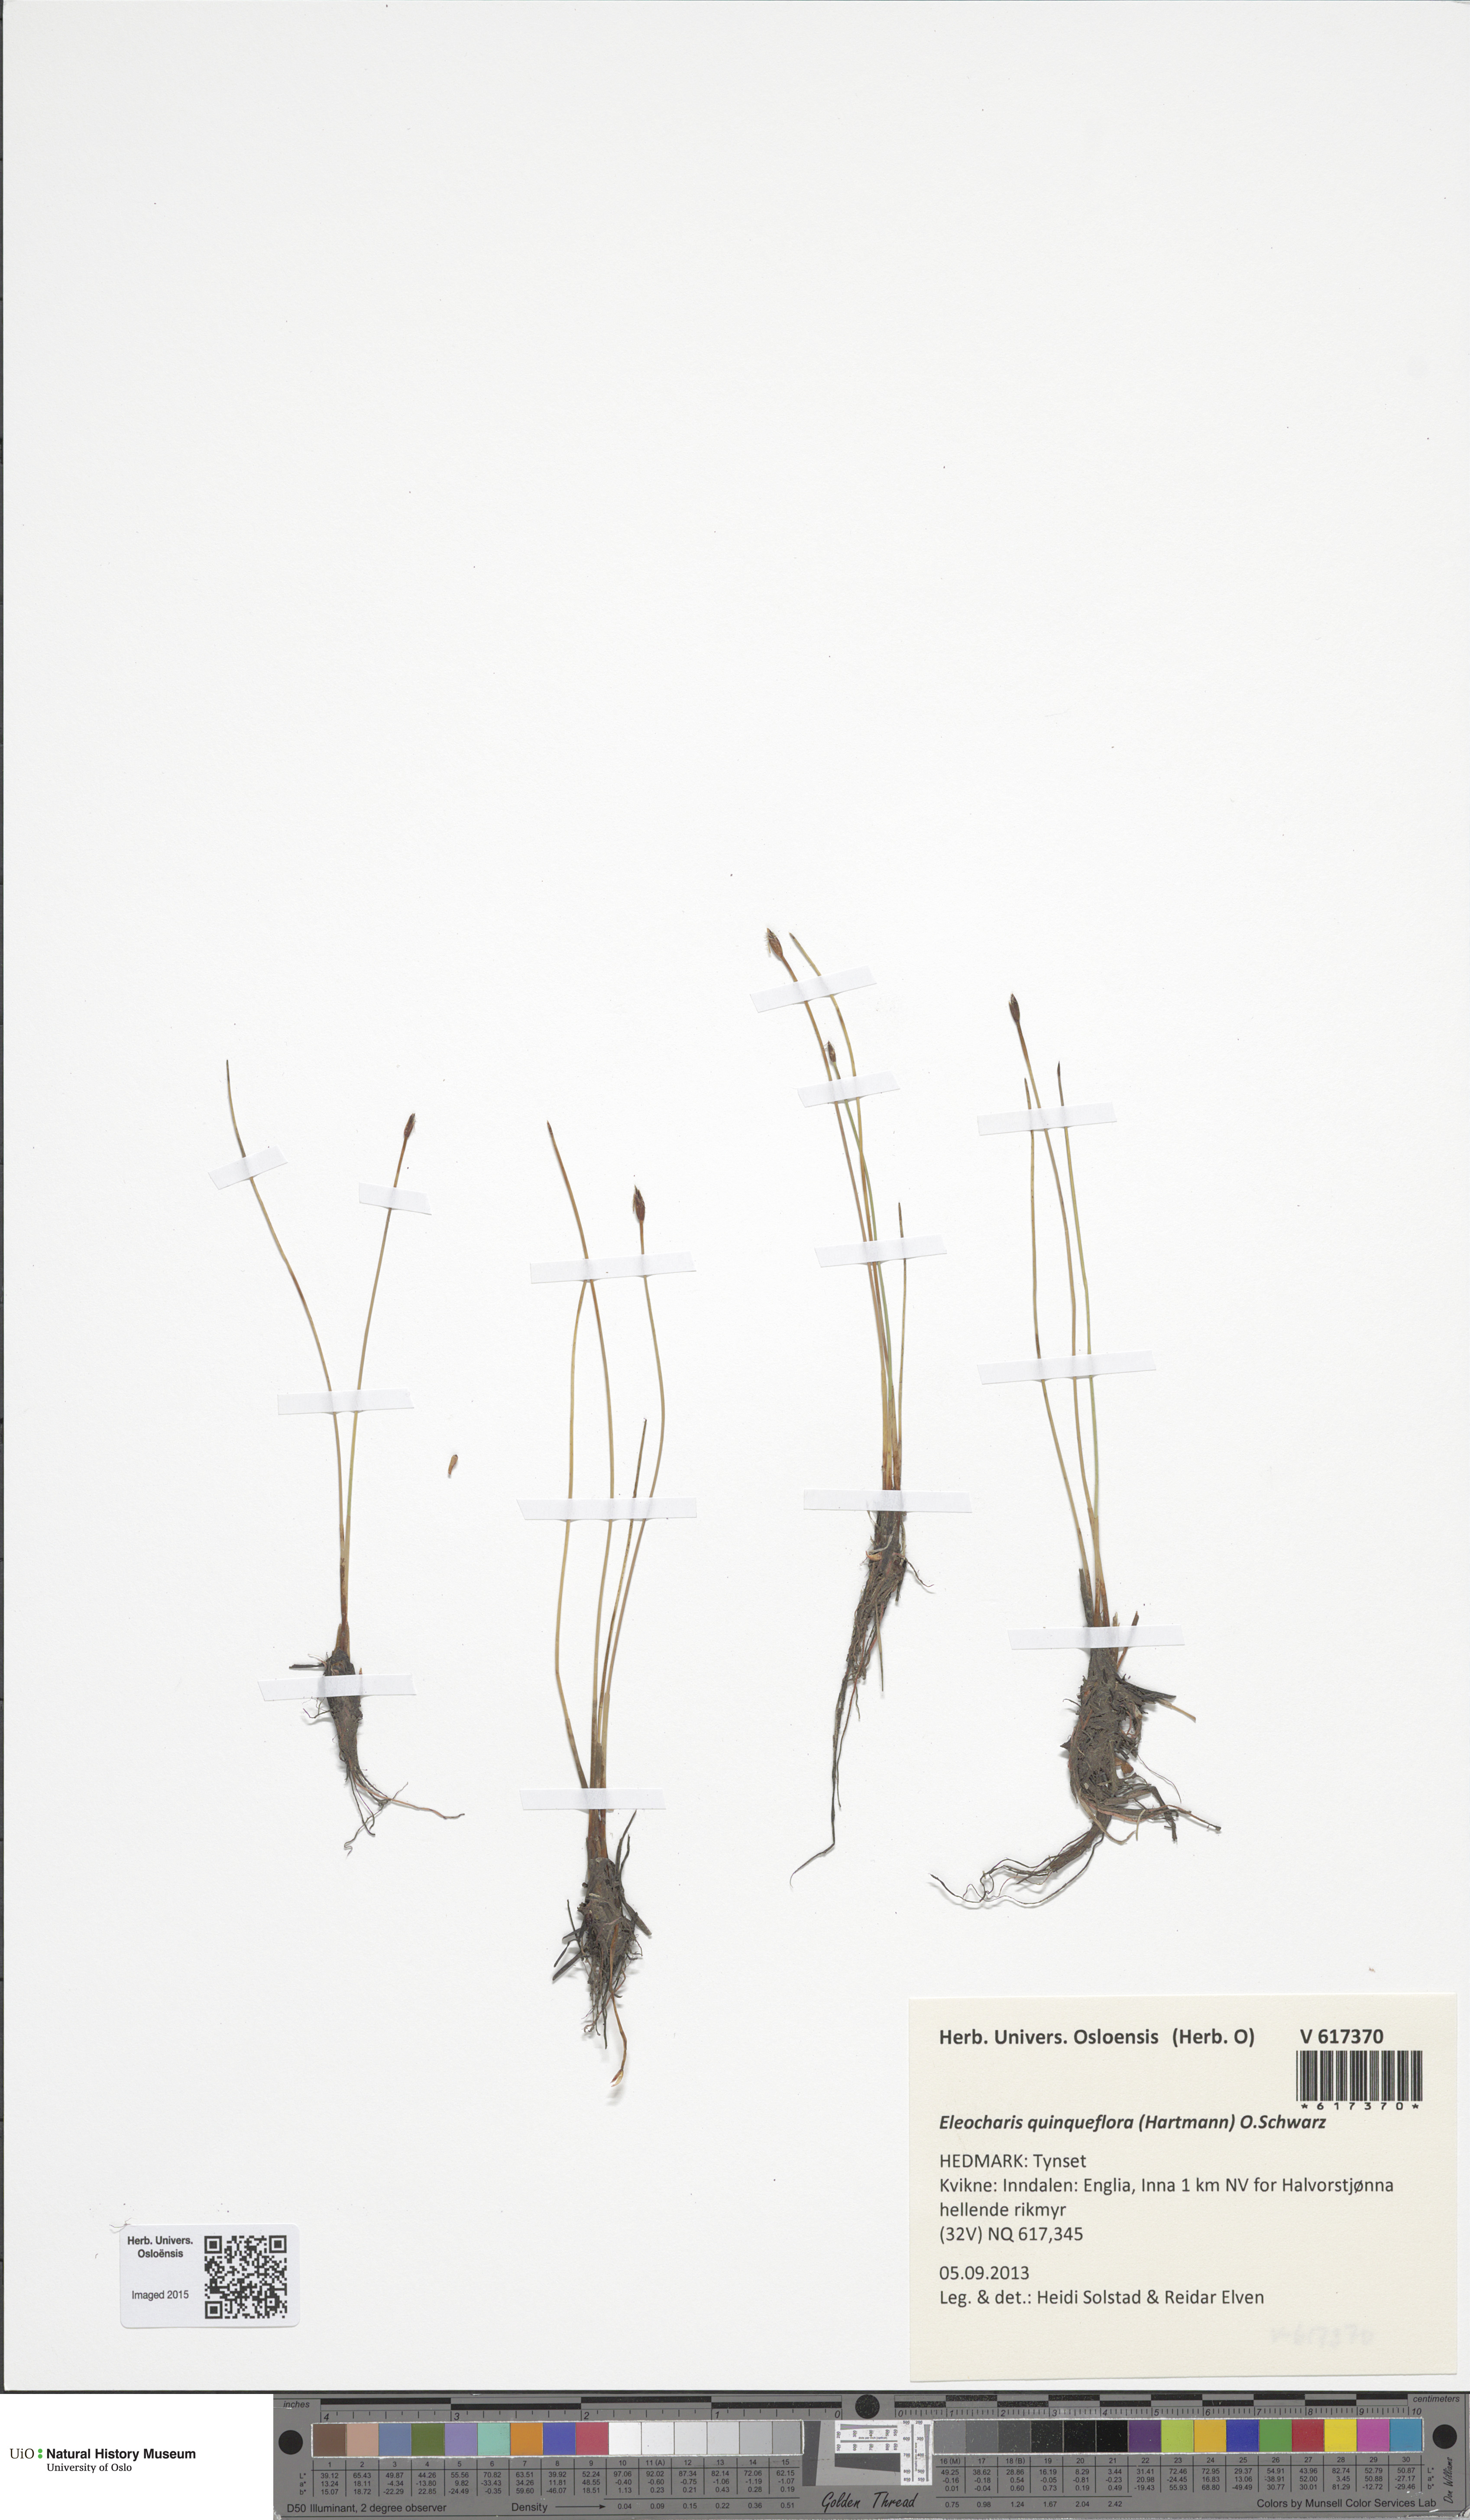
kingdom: Plantae
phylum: Tracheophyta
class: Liliopsida
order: Poales
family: Cyperaceae
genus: Eleocharis
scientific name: Eleocharis quinqueflora
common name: Few-flowered spike-rush
